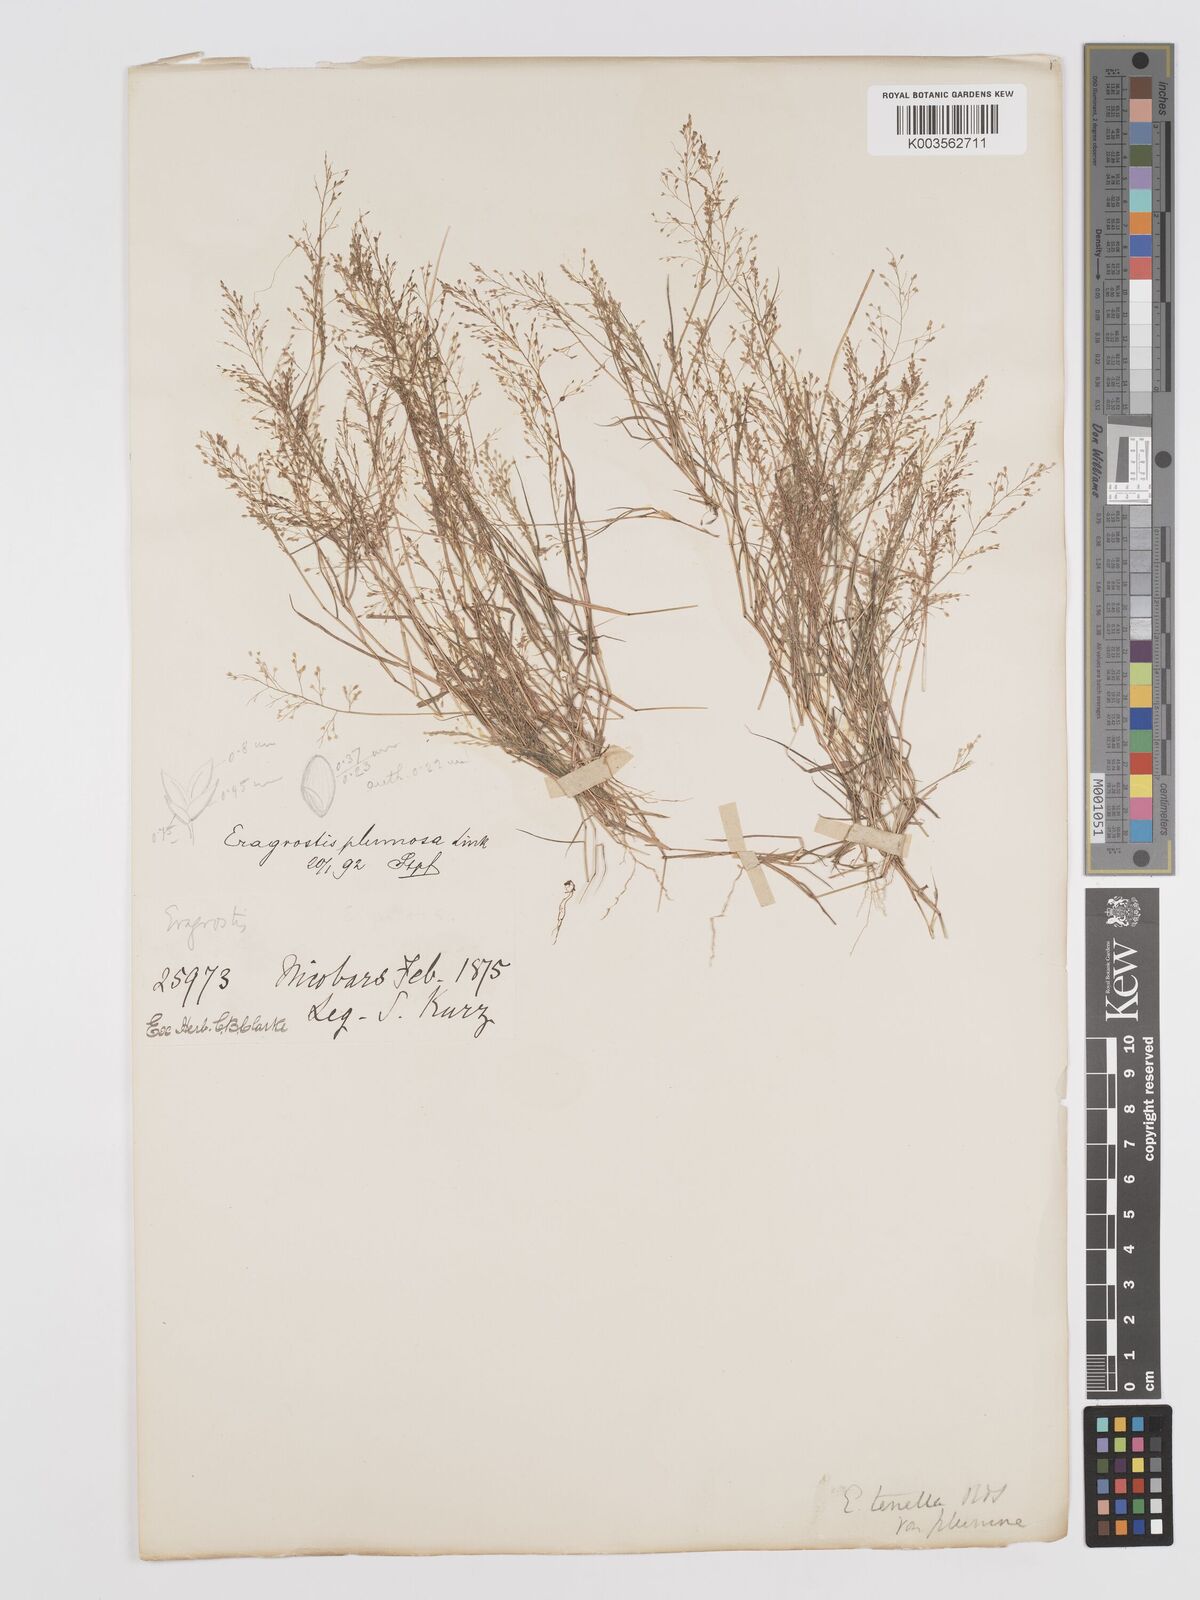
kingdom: Plantae
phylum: Tracheophyta
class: Liliopsida
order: Poales
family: Poaceae
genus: Eragrostis
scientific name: Eragrostis tenella
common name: Japanese lovegrass
